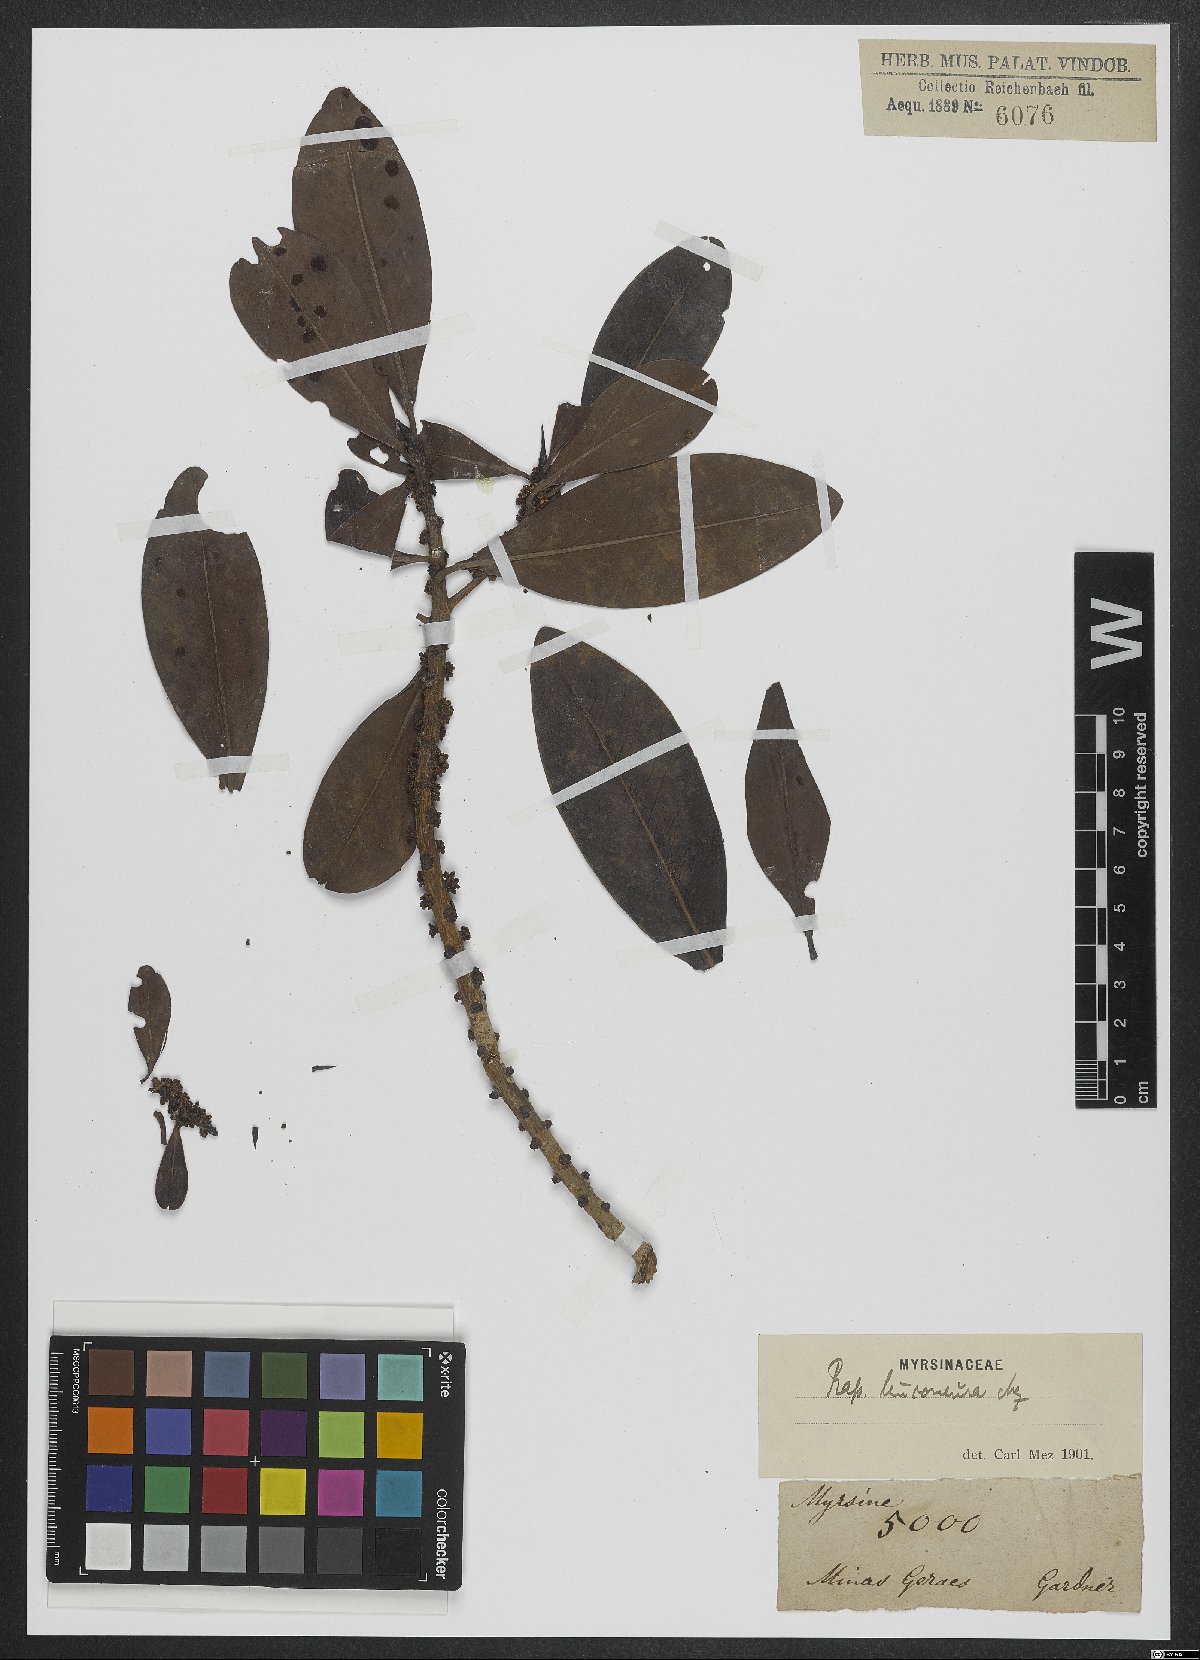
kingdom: Plantae
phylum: Tracheophyta
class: Magnoliopsida
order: Ericales
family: Primulaceae
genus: Myrsine
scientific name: Myrsine leuconeura
